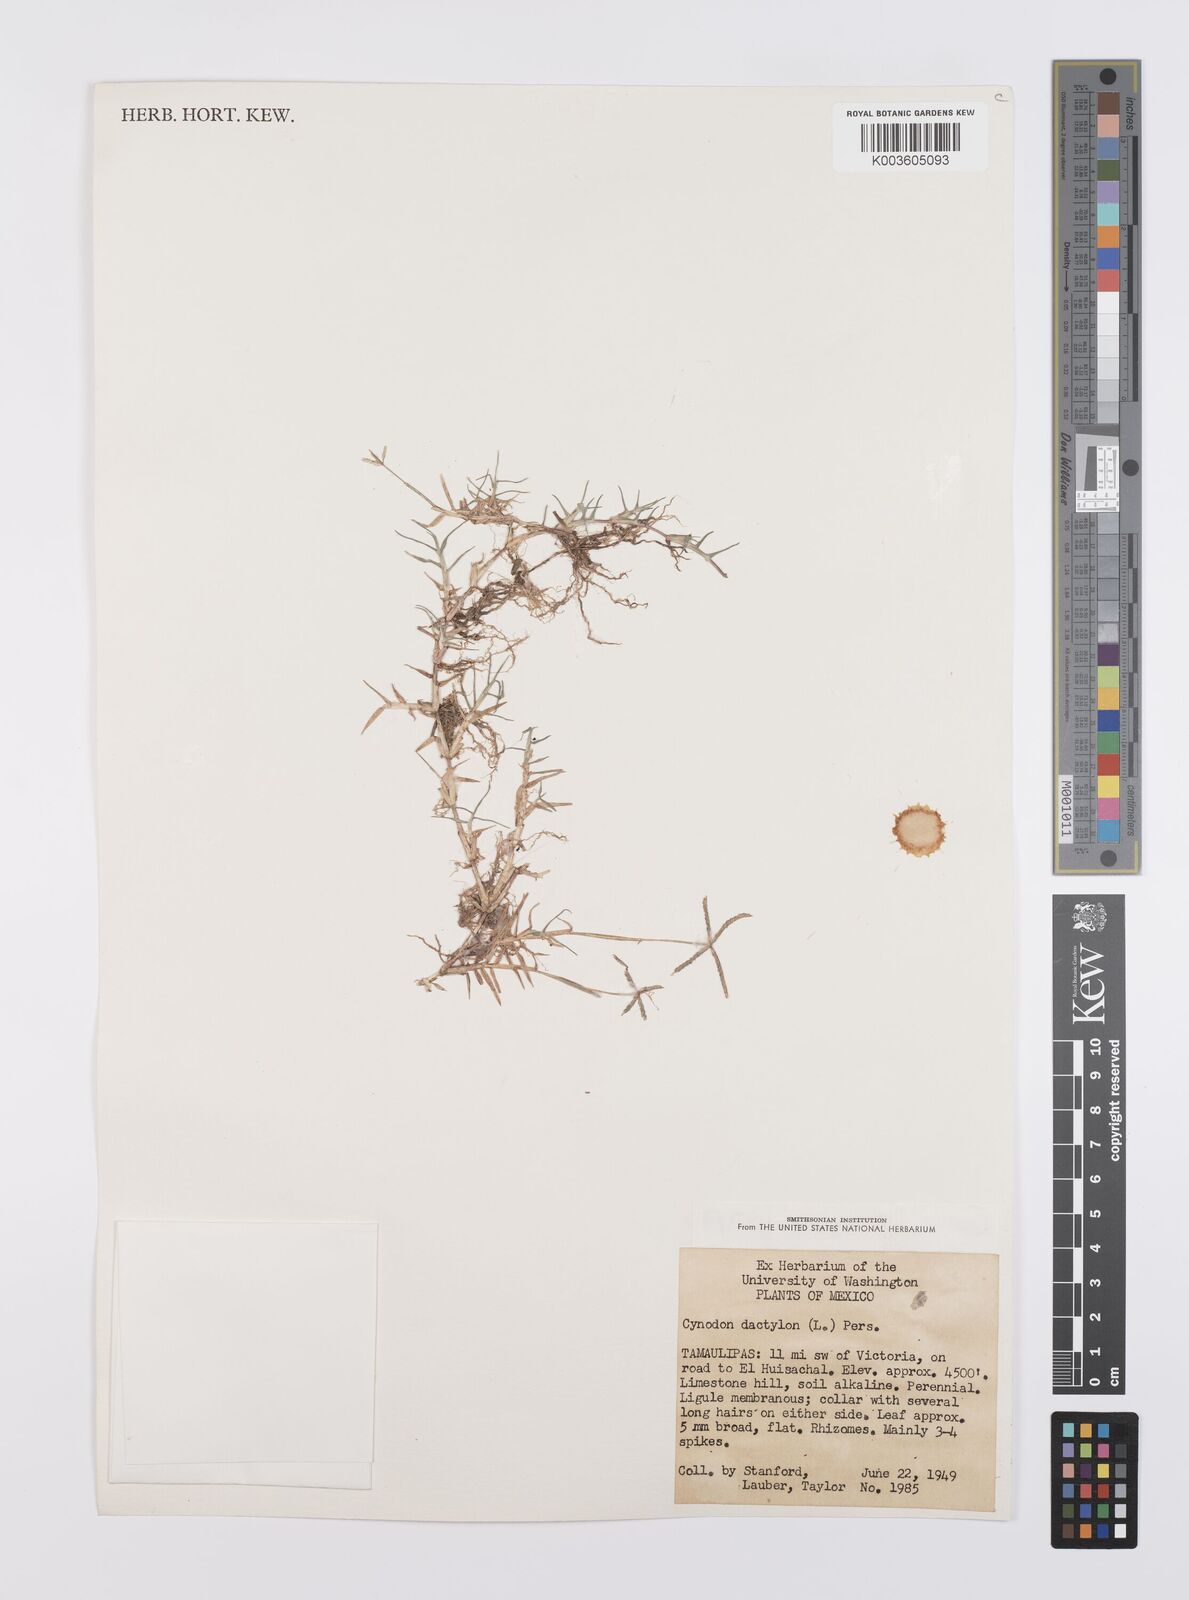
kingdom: Plantae
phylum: Tracheophyta
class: Liliopsida
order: Poales
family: Poaceae
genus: Cynodon
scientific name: Cynodon dactylon
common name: Bermuda grass
